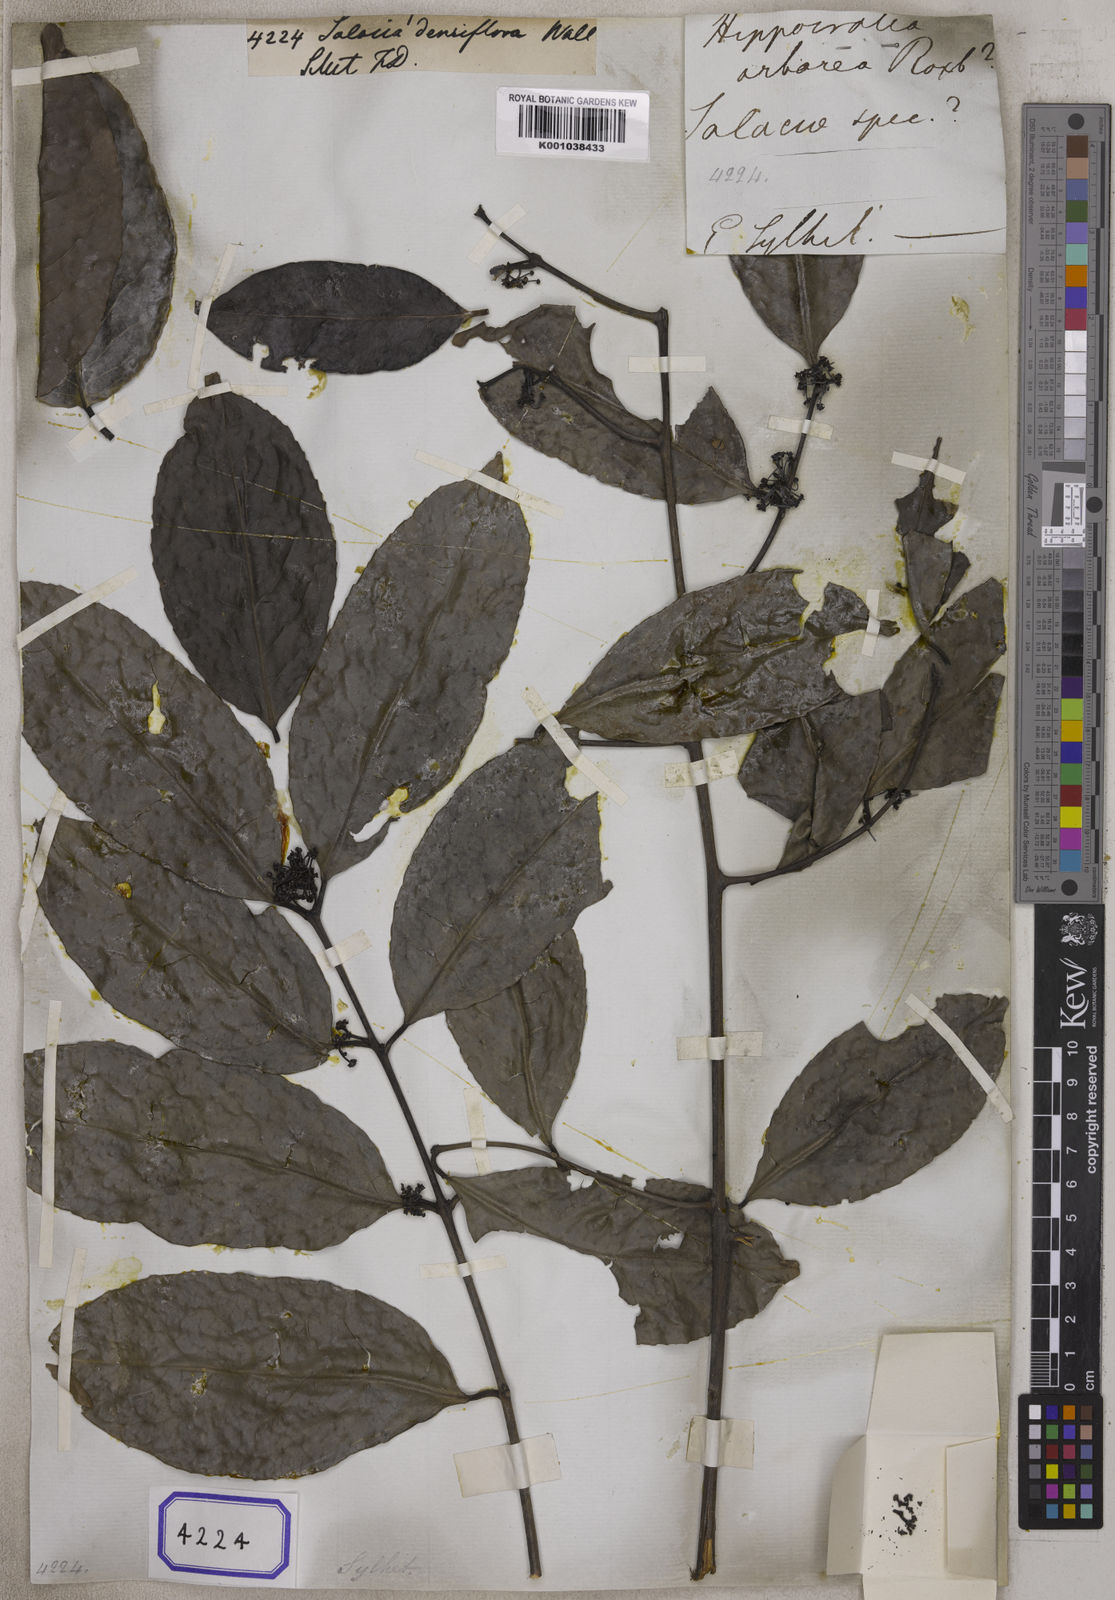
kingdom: Plantae
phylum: Tracheophyta
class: Magnoliopsida
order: Celastrales
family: Celastraceae
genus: Salacia
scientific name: Salacia floribunda
